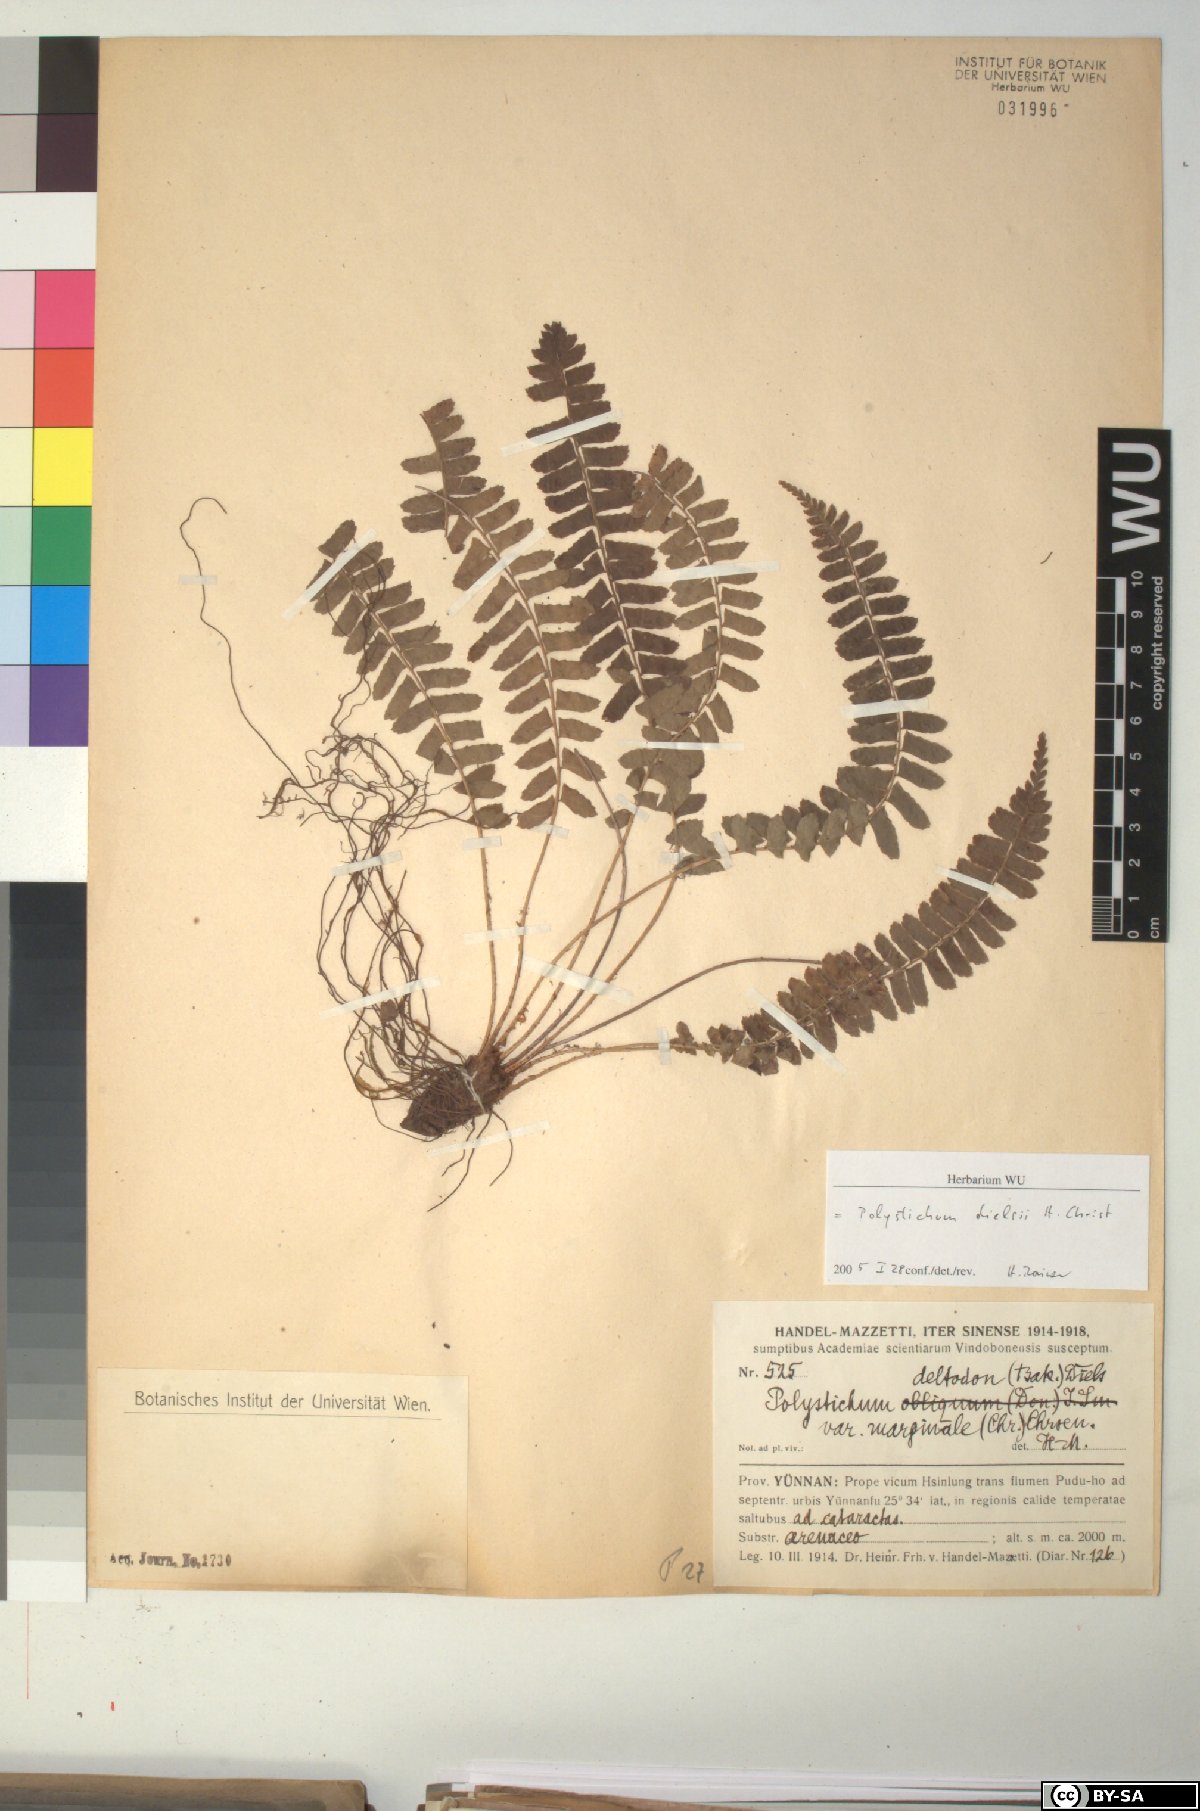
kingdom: Plantae
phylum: Tracheophyta
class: Polypodiopsida
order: Polypodiales
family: Dryopteridaceae
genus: Polystichum
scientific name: Polystichum dielsii
